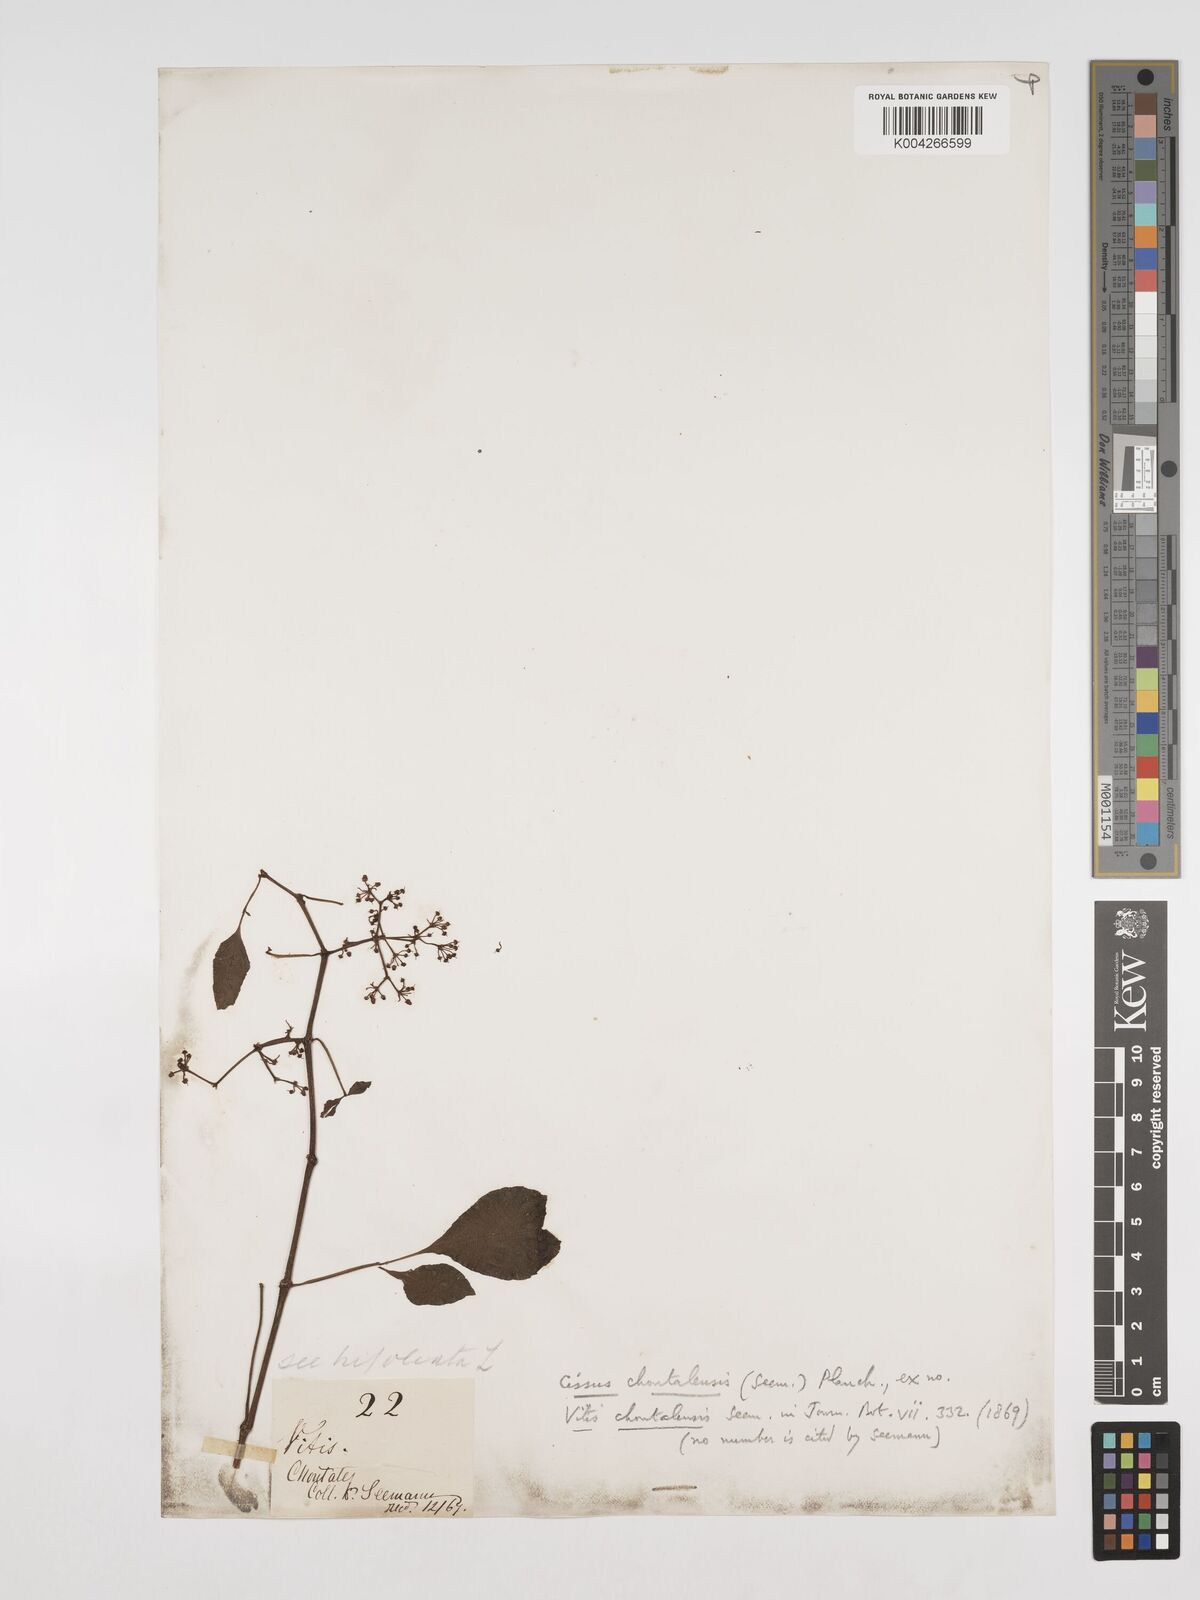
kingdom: Plantae
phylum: Tracheophyta
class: Magnoliopsida
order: Vitales
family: Vitaceae
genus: Cissus
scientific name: Cissus microcarpa
